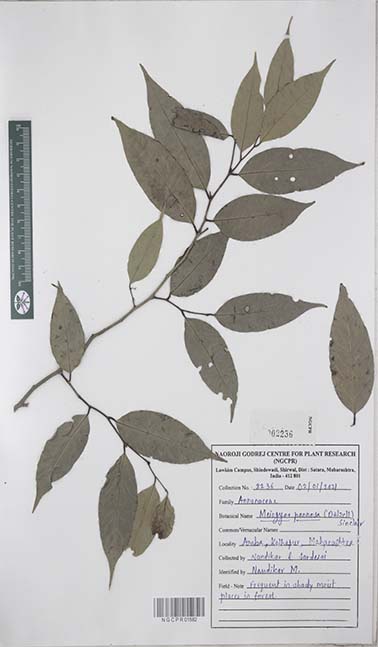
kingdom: Plantae
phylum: Tracheophyta
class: Magnoliopsida
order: Magnoliales
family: Annonaceae
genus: Meiogyne
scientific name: Meiogyne pannosa
